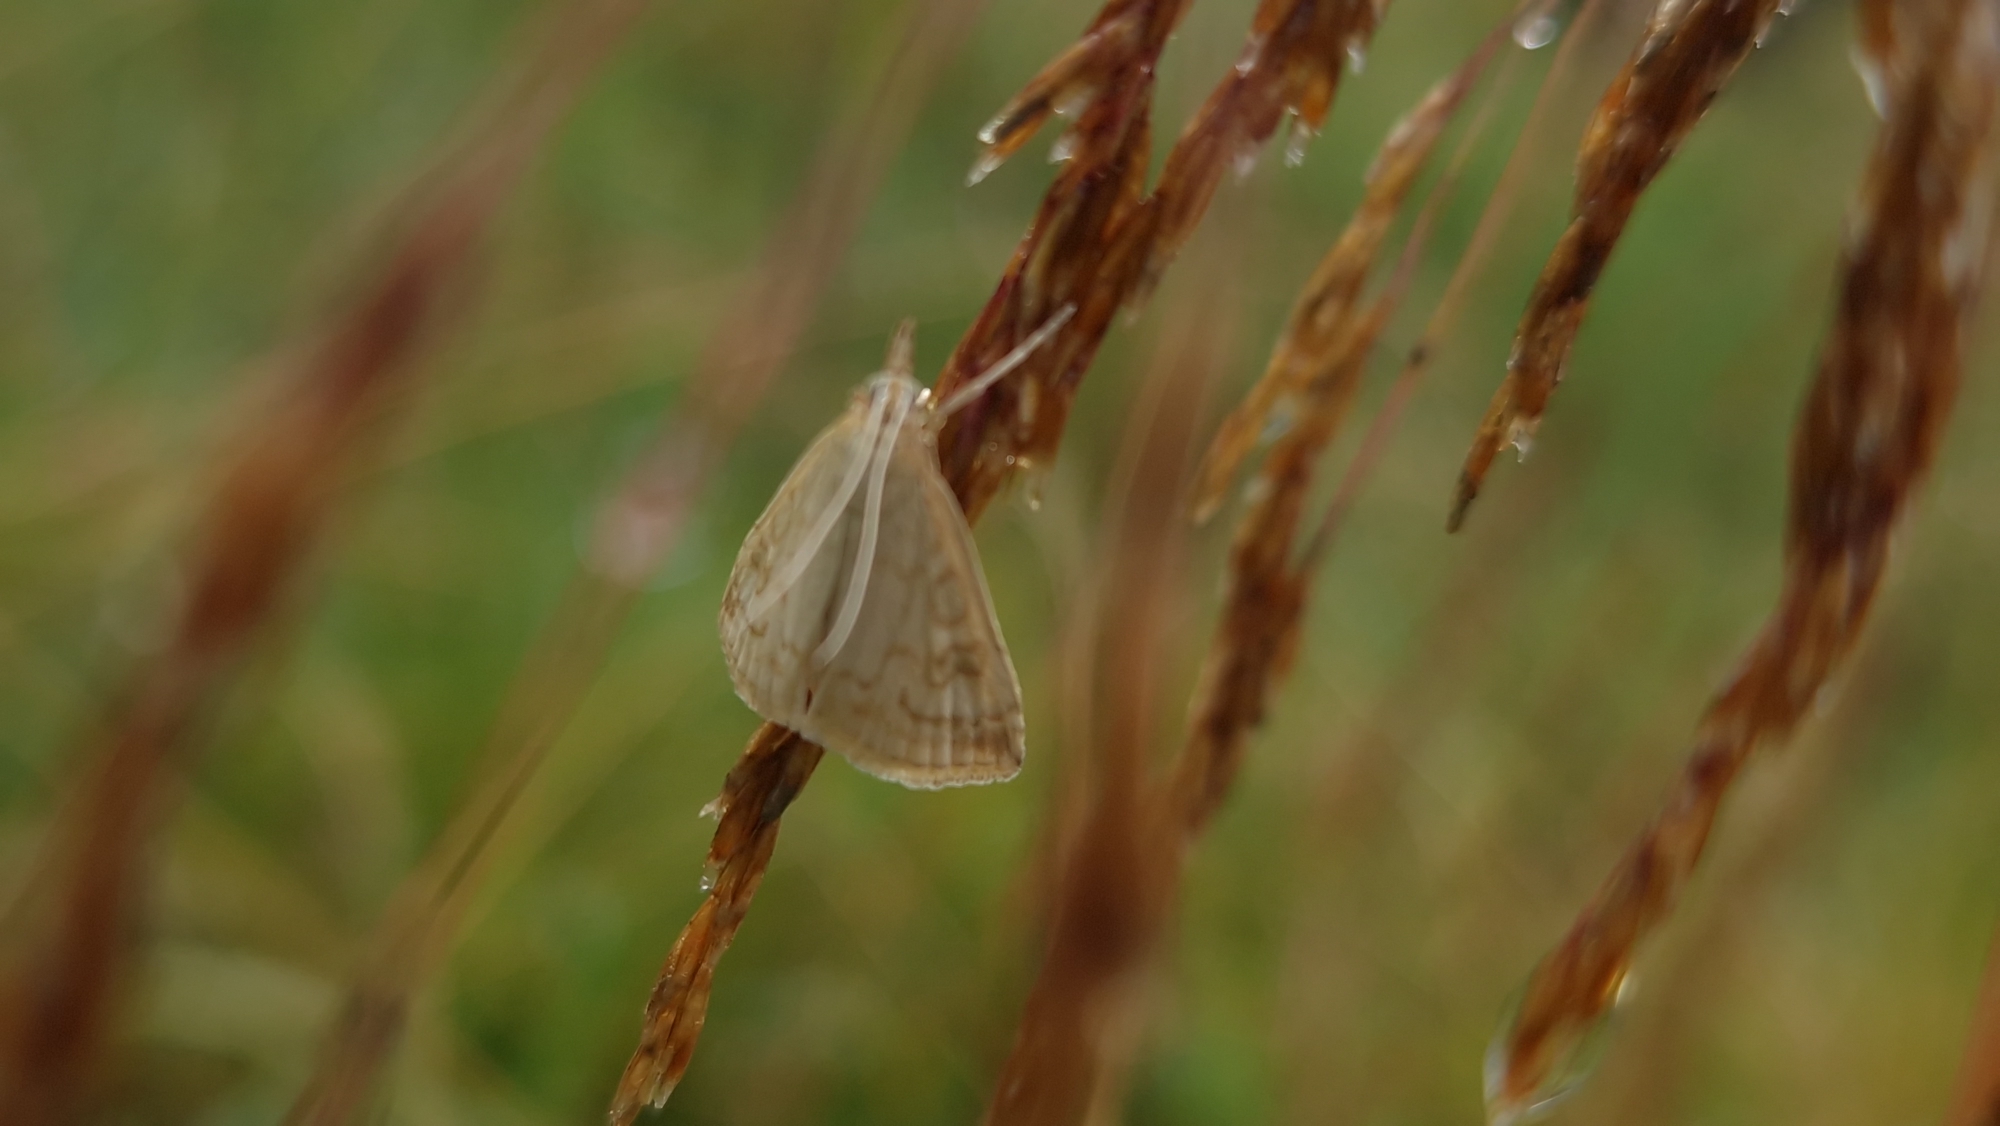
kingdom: Animalia
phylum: Arthropoda
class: Insecta
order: Lepidoptera
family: Crambidae
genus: Udea
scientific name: Udea lutealis
